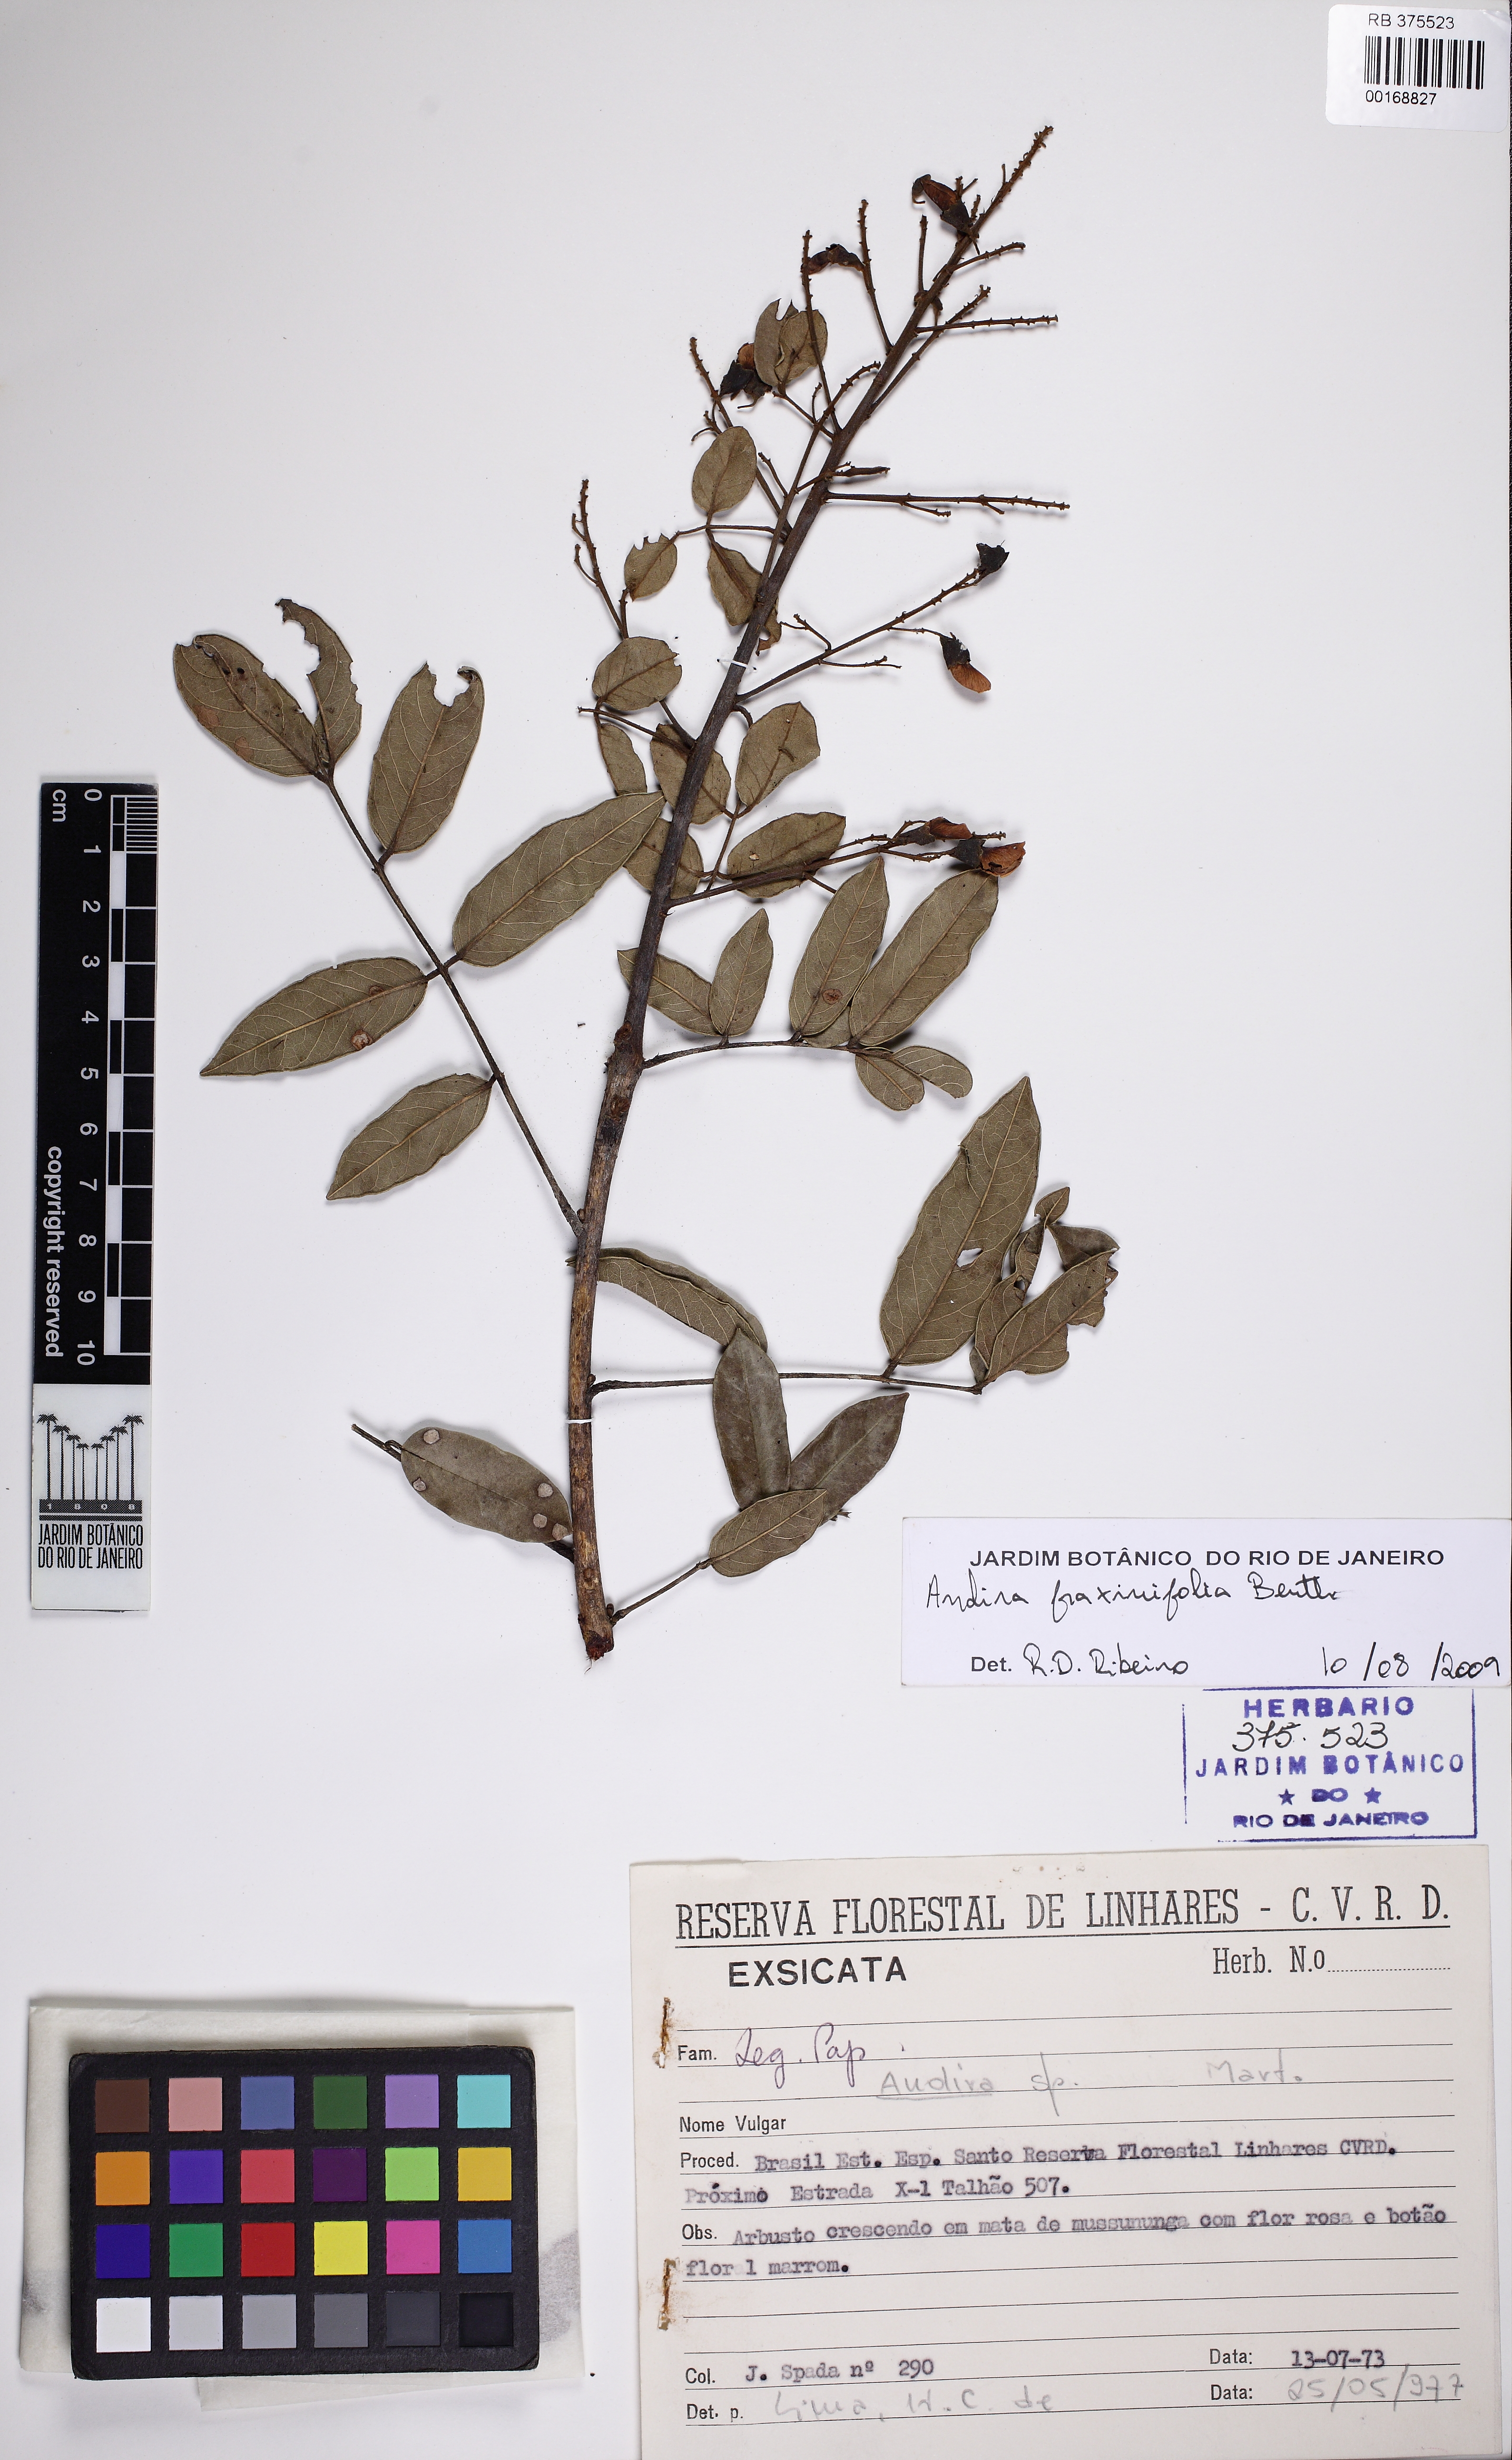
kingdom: Plantae
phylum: Tracheophyta
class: Magnoliopsida
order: Fabales
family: Fabaceae
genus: Andira
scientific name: Andira
